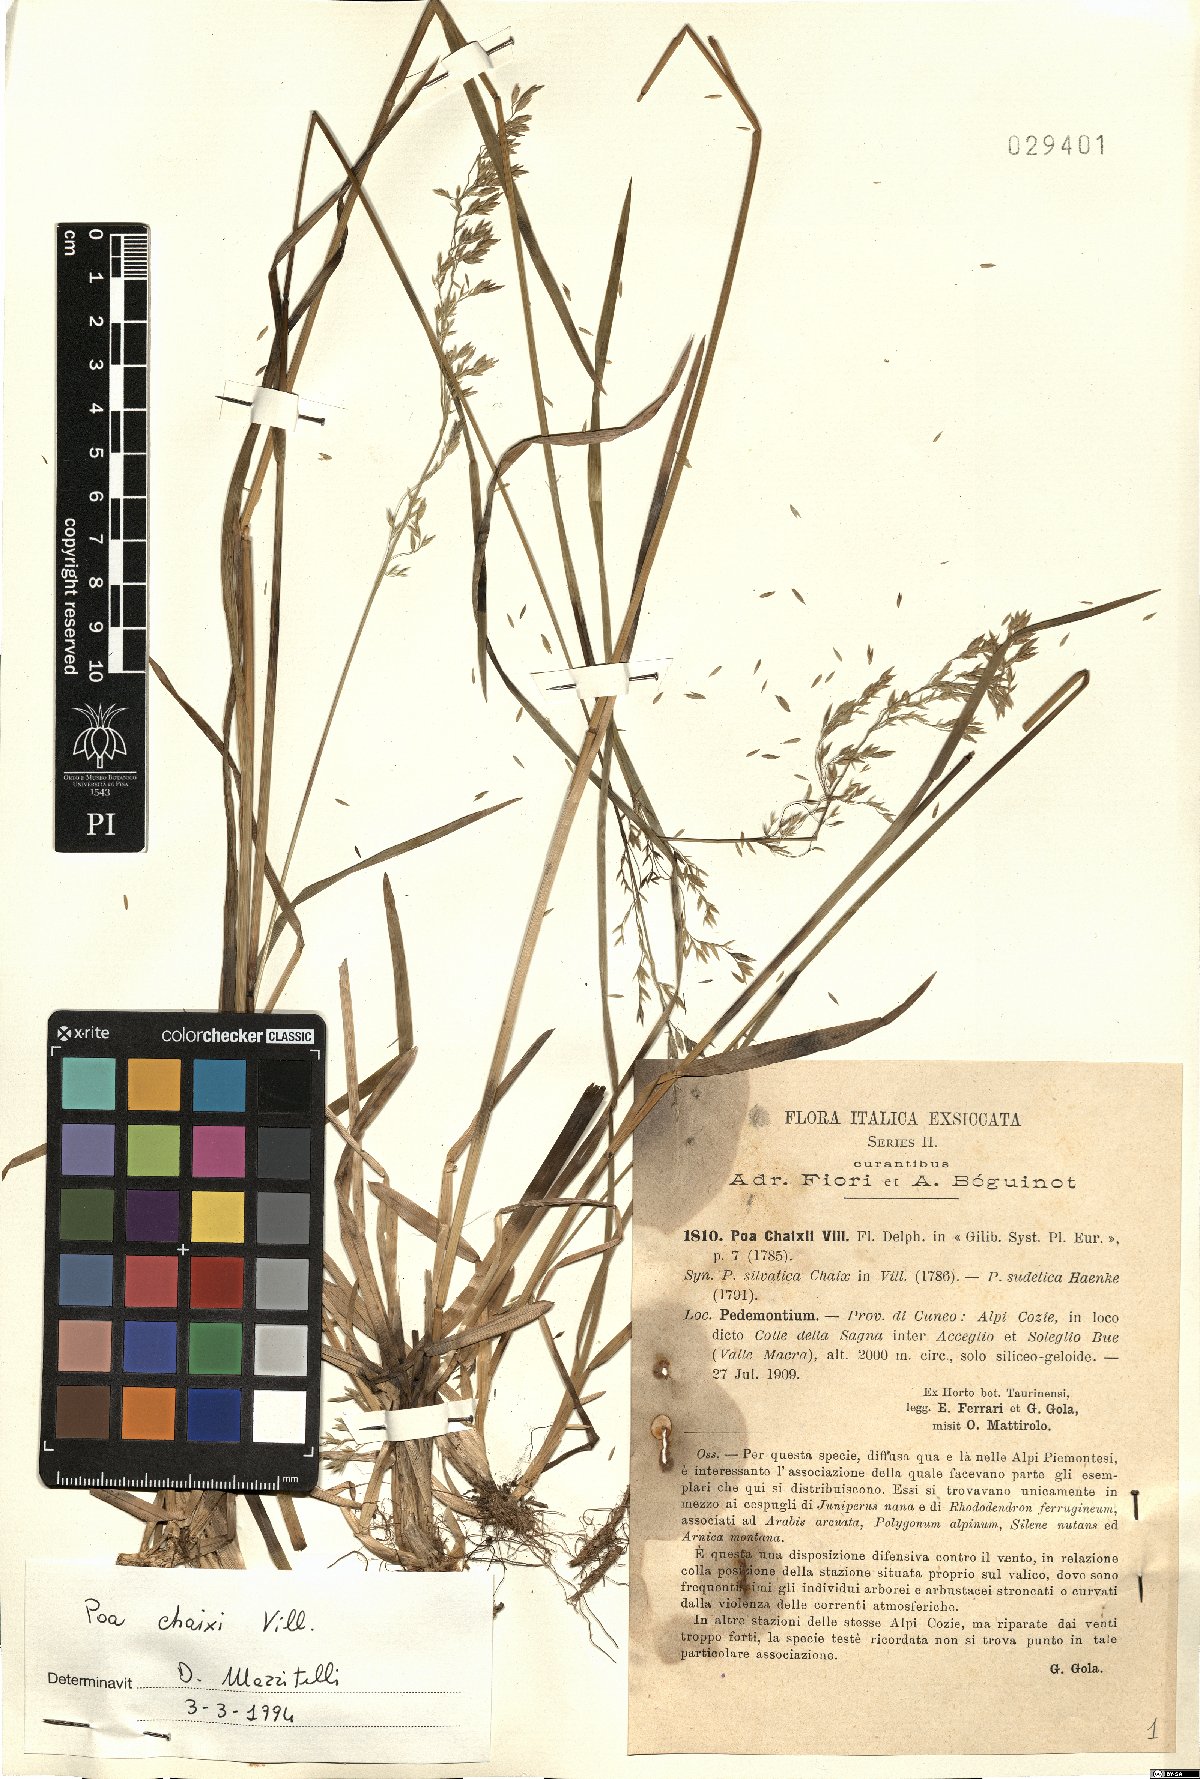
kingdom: Plantae
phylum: Tracheophyta
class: Liliopsida
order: Poales
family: Poaceae
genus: Poa
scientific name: Poa chaixii
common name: Broad-leaved meadow-grass
